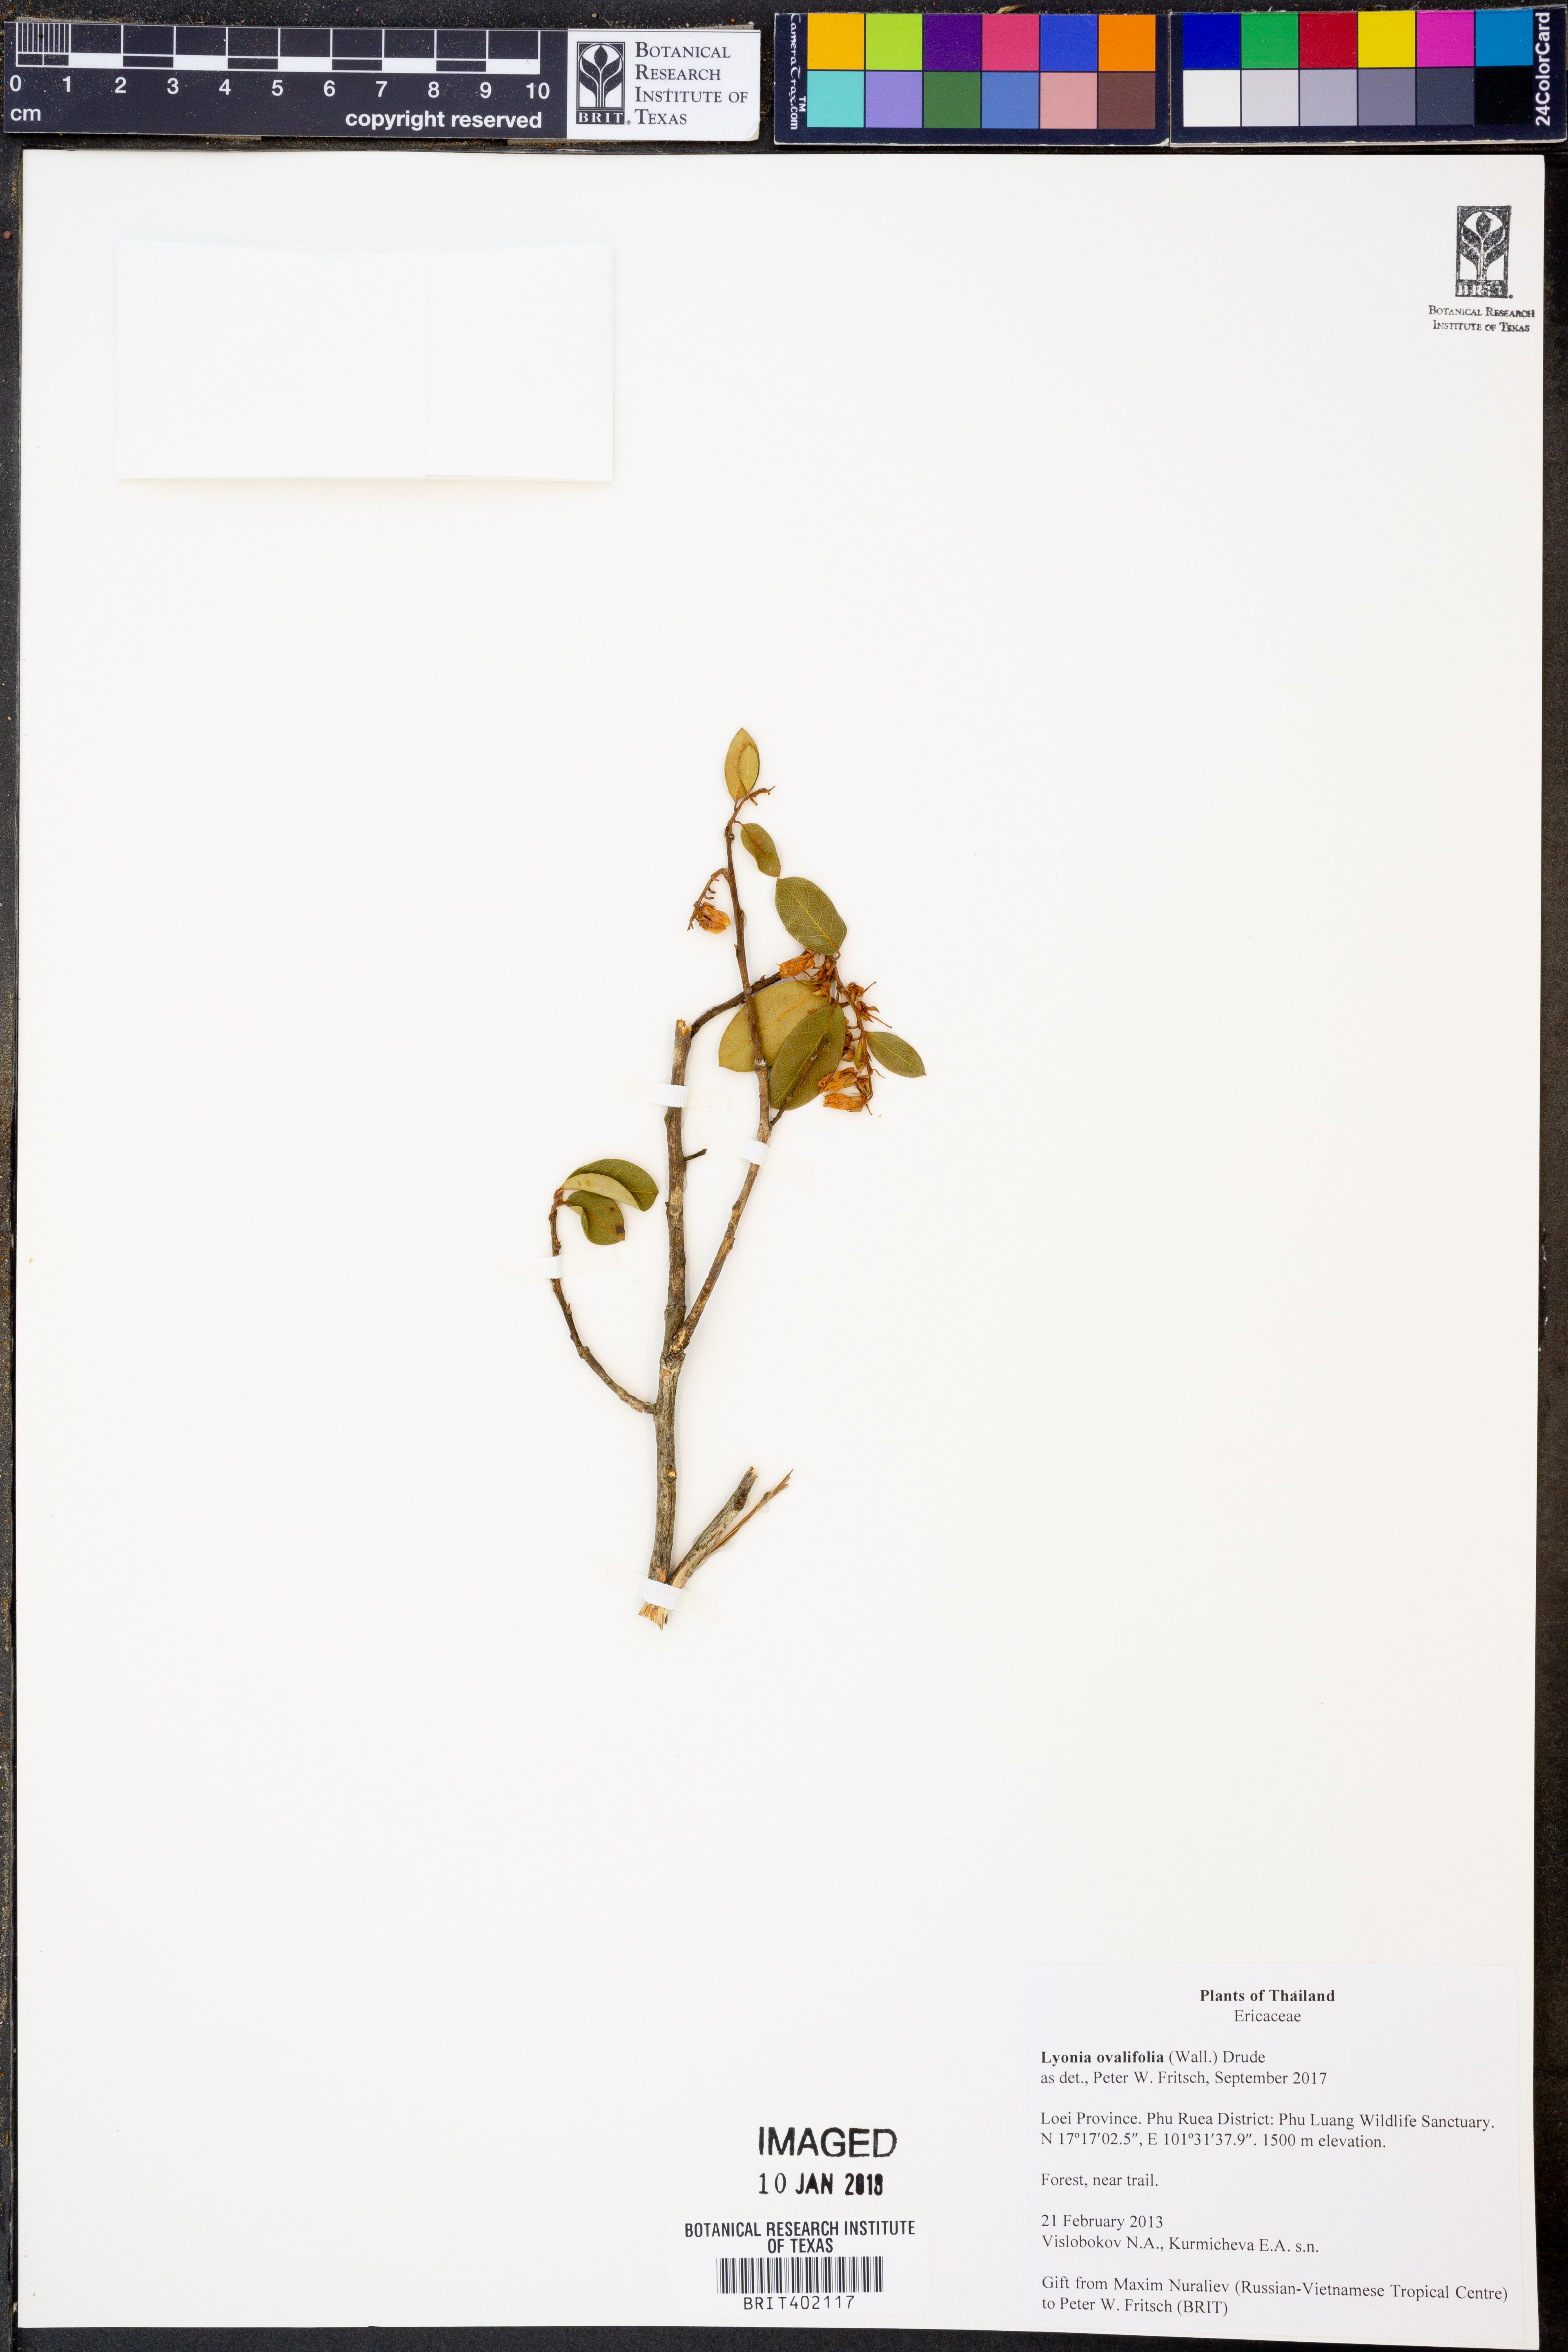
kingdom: Plantae
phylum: Tracheophyta
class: Magnoliopsida
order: Ericales
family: Ericaceae
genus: Lyonia
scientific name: Lyonia ovalifolia
